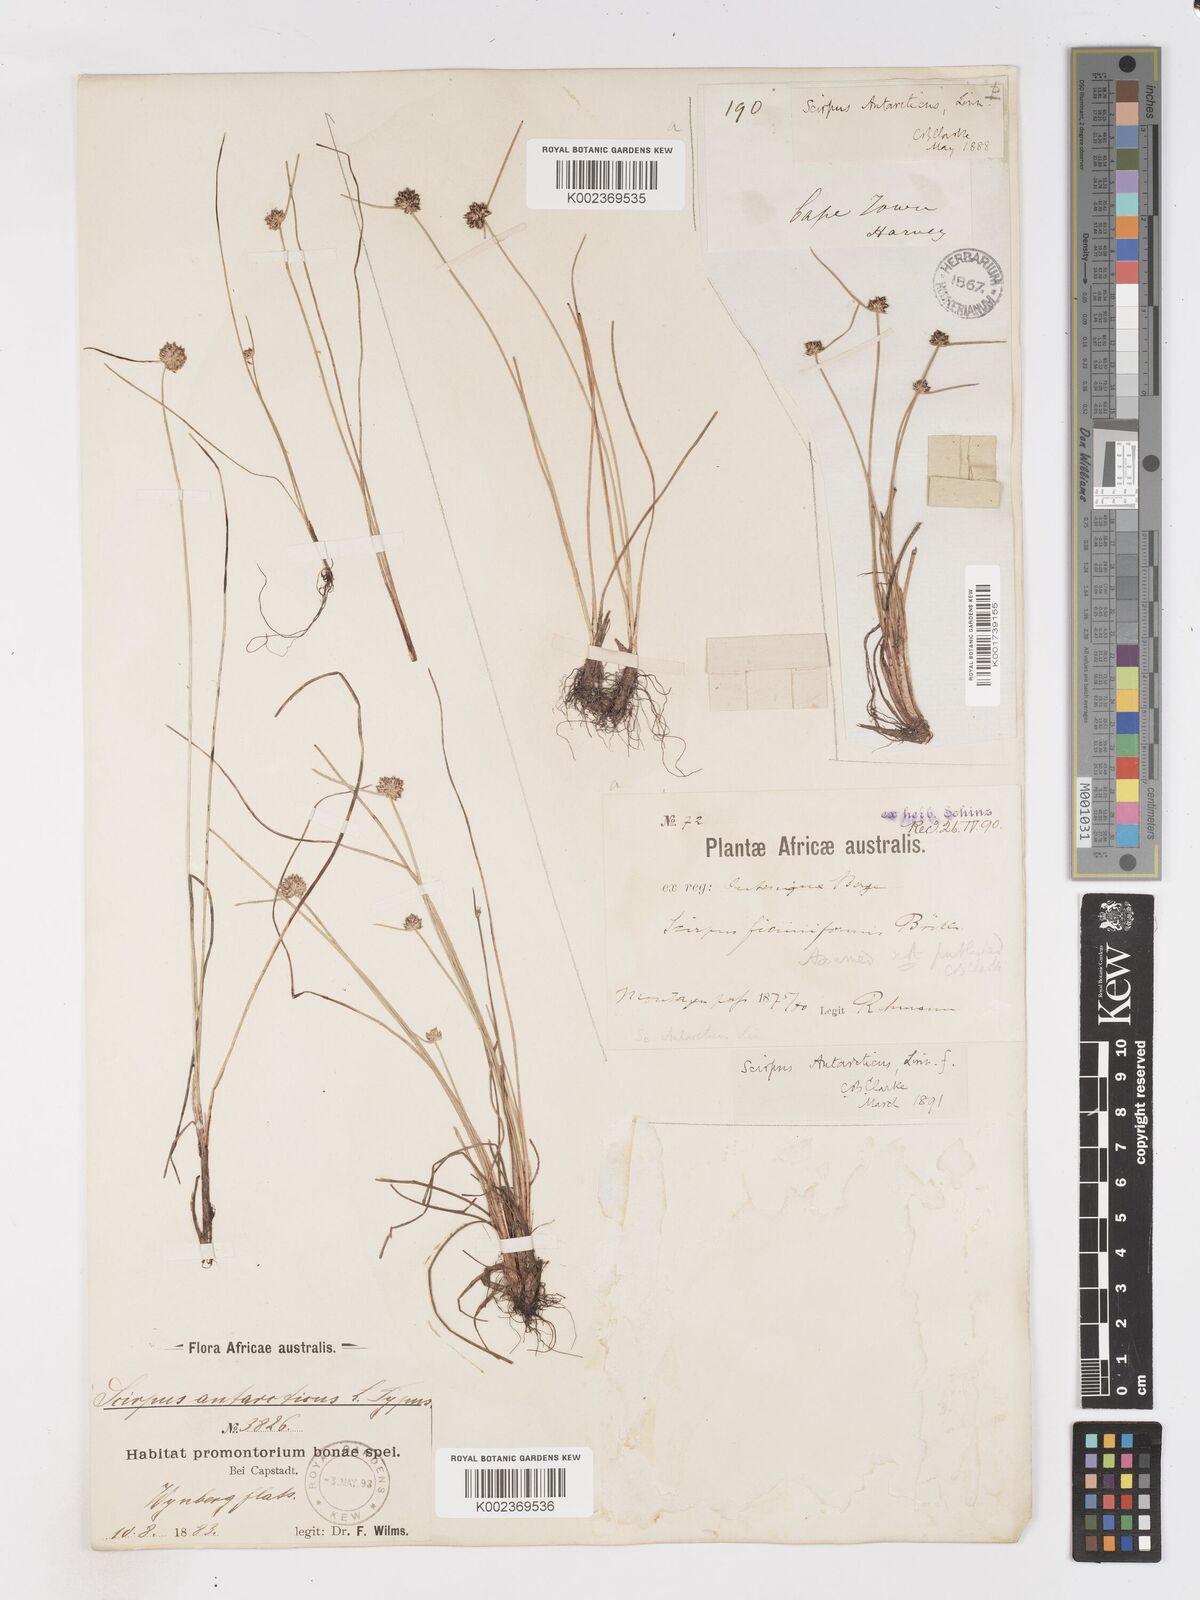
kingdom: Plantae
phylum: Tracheophyta
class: Liliopsida
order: Poales
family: Cyperaceae
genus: Isolepis
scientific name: Isolepis antarctica
